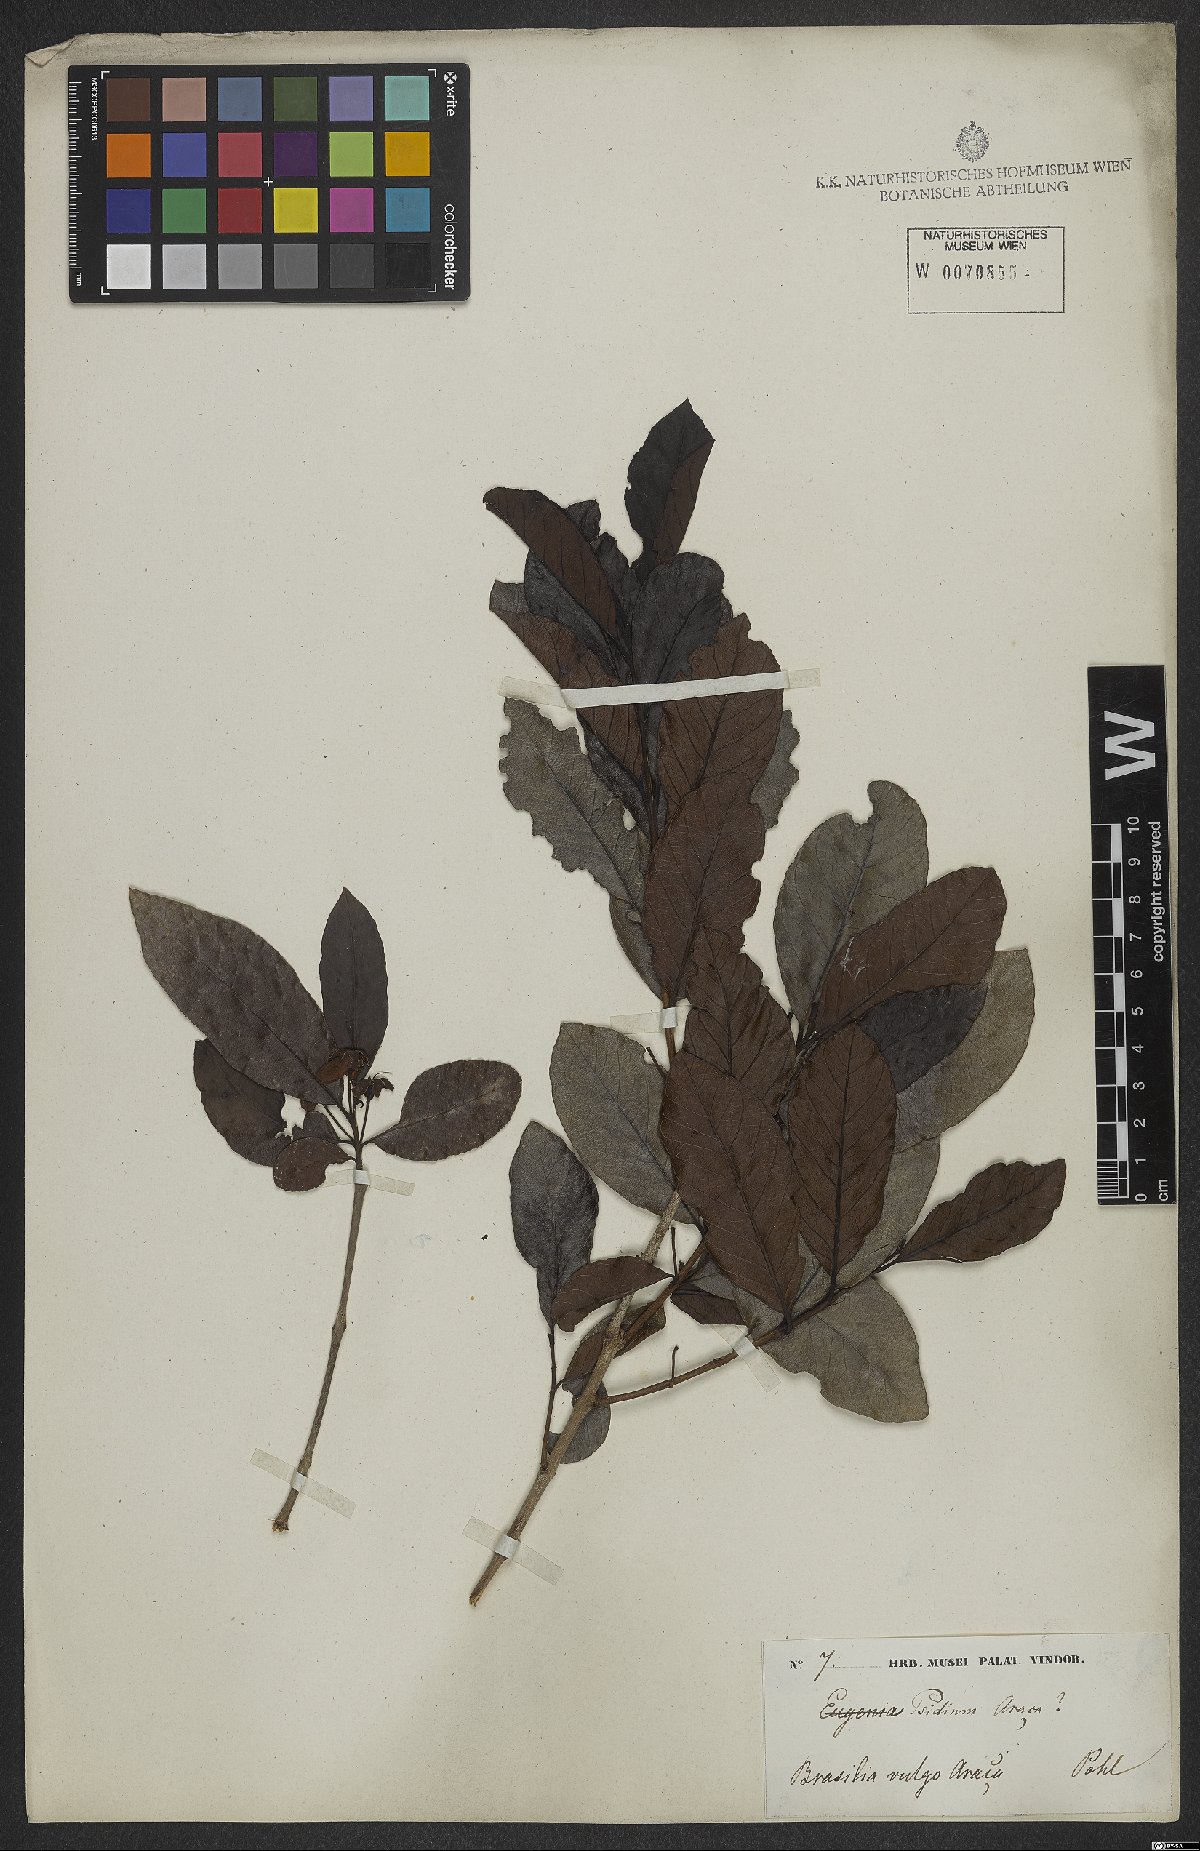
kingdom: Plantae
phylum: Tracheophyta
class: Magnoliopsida
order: Myrtales
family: Myrtaceae
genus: Psidium
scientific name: Psidium guineense
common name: Brazilian guava
